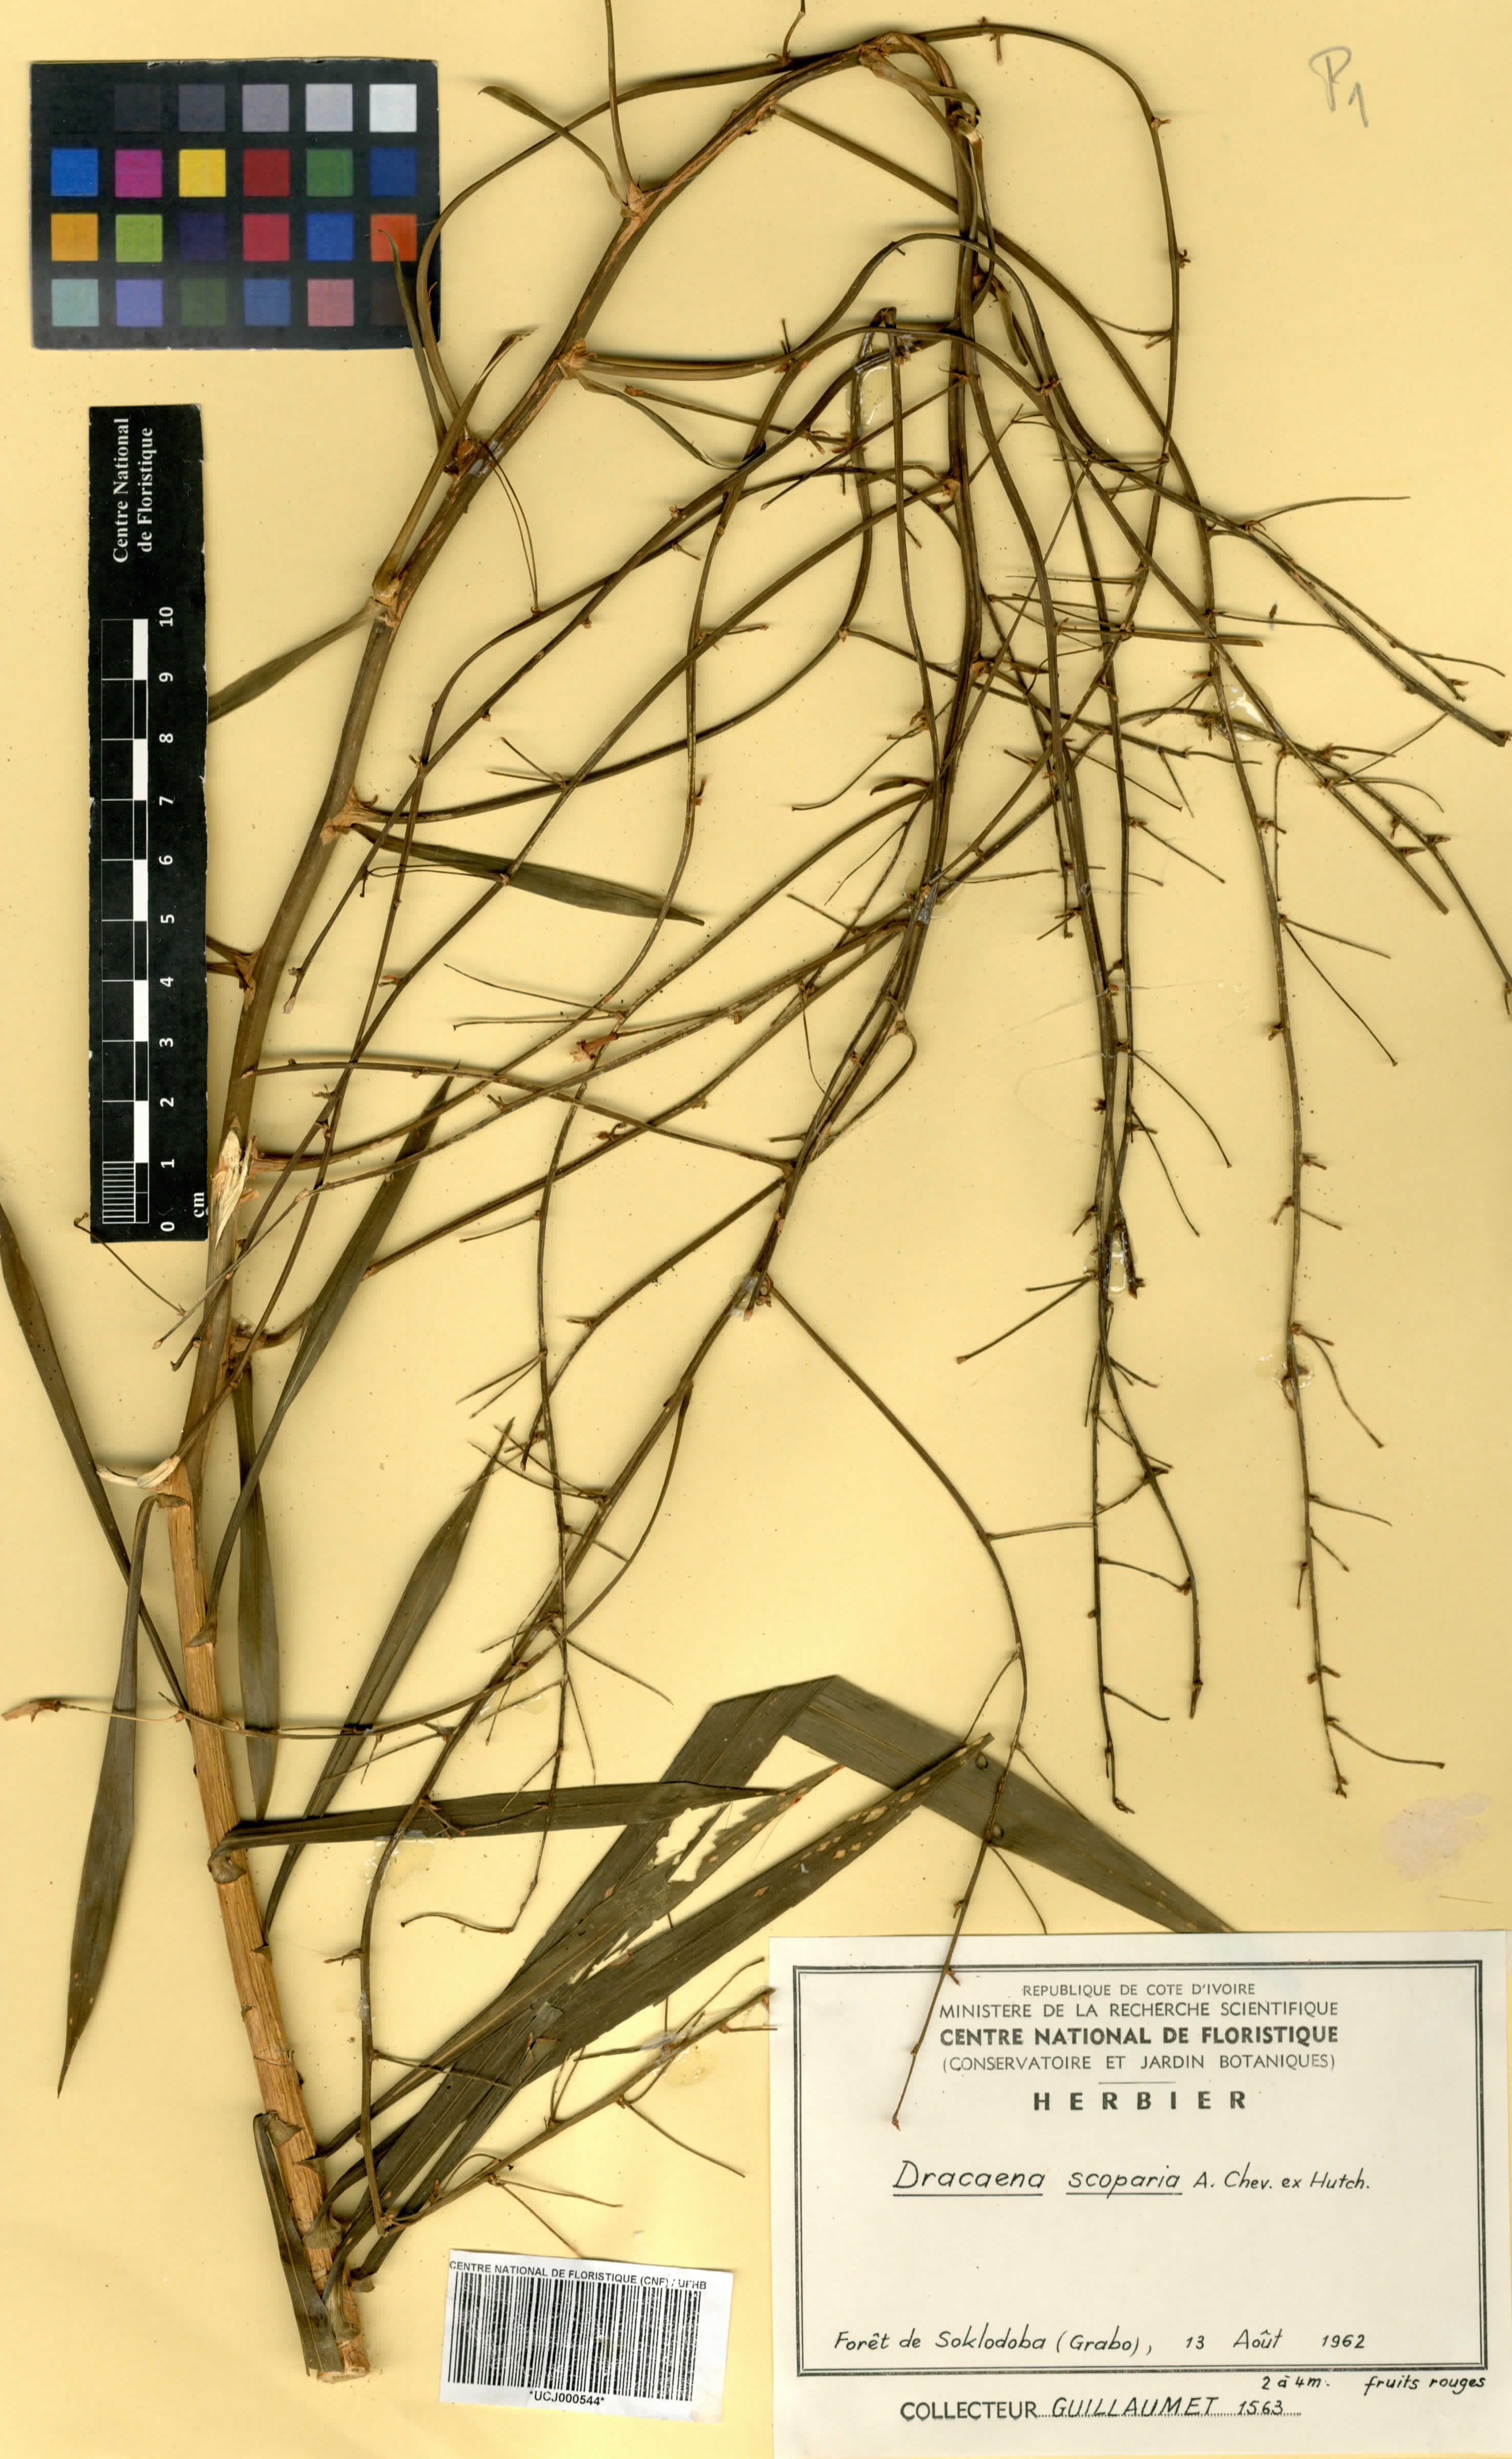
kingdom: Plantae
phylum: Tracheophyta
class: Liliopsida
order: Asparagales
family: Asparagaceae
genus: Dracaena
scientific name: Dracaena cerasifera
